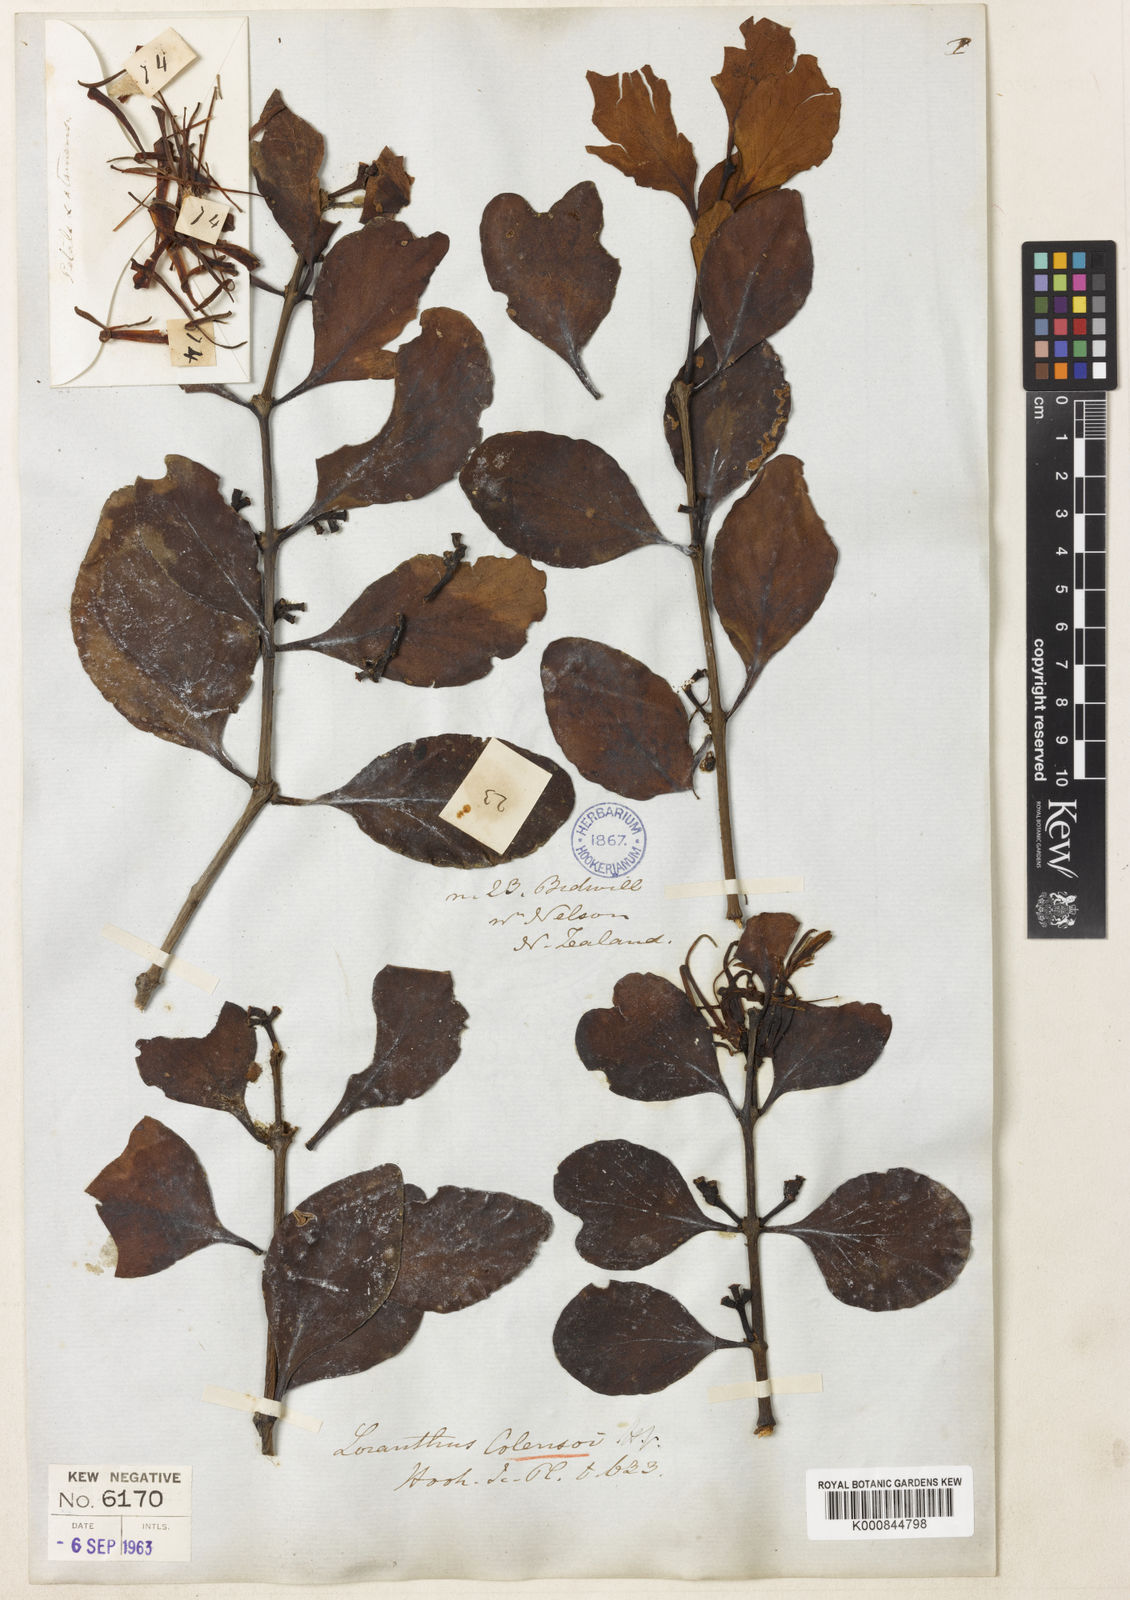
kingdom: Plantae
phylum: Tracheophyta
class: Magnoliopsida
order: Santalales
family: Loranthaceae
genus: Peraxilla
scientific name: Peraxilla colensoi
